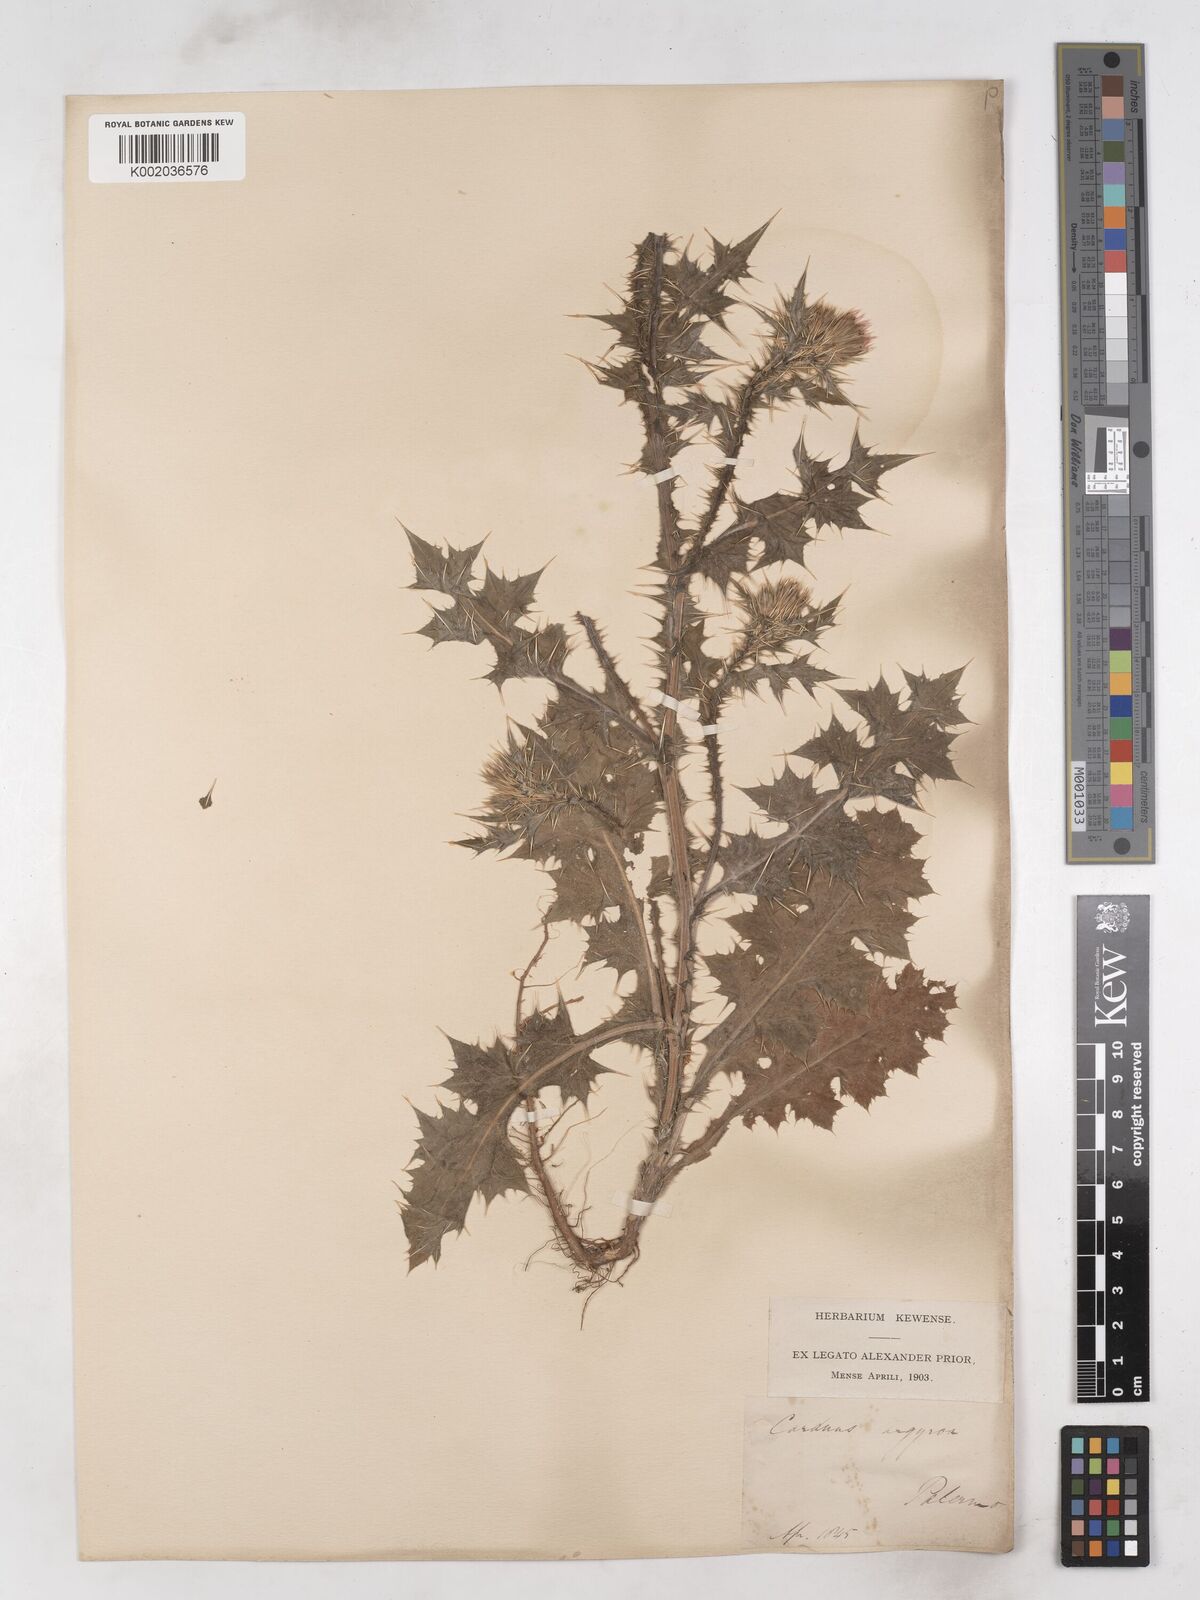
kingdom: Plantae
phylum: Tracheophyta
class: Magnoliopsida
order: Asterales
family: Asteraceae
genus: Carduus
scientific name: Carduus argyroa
